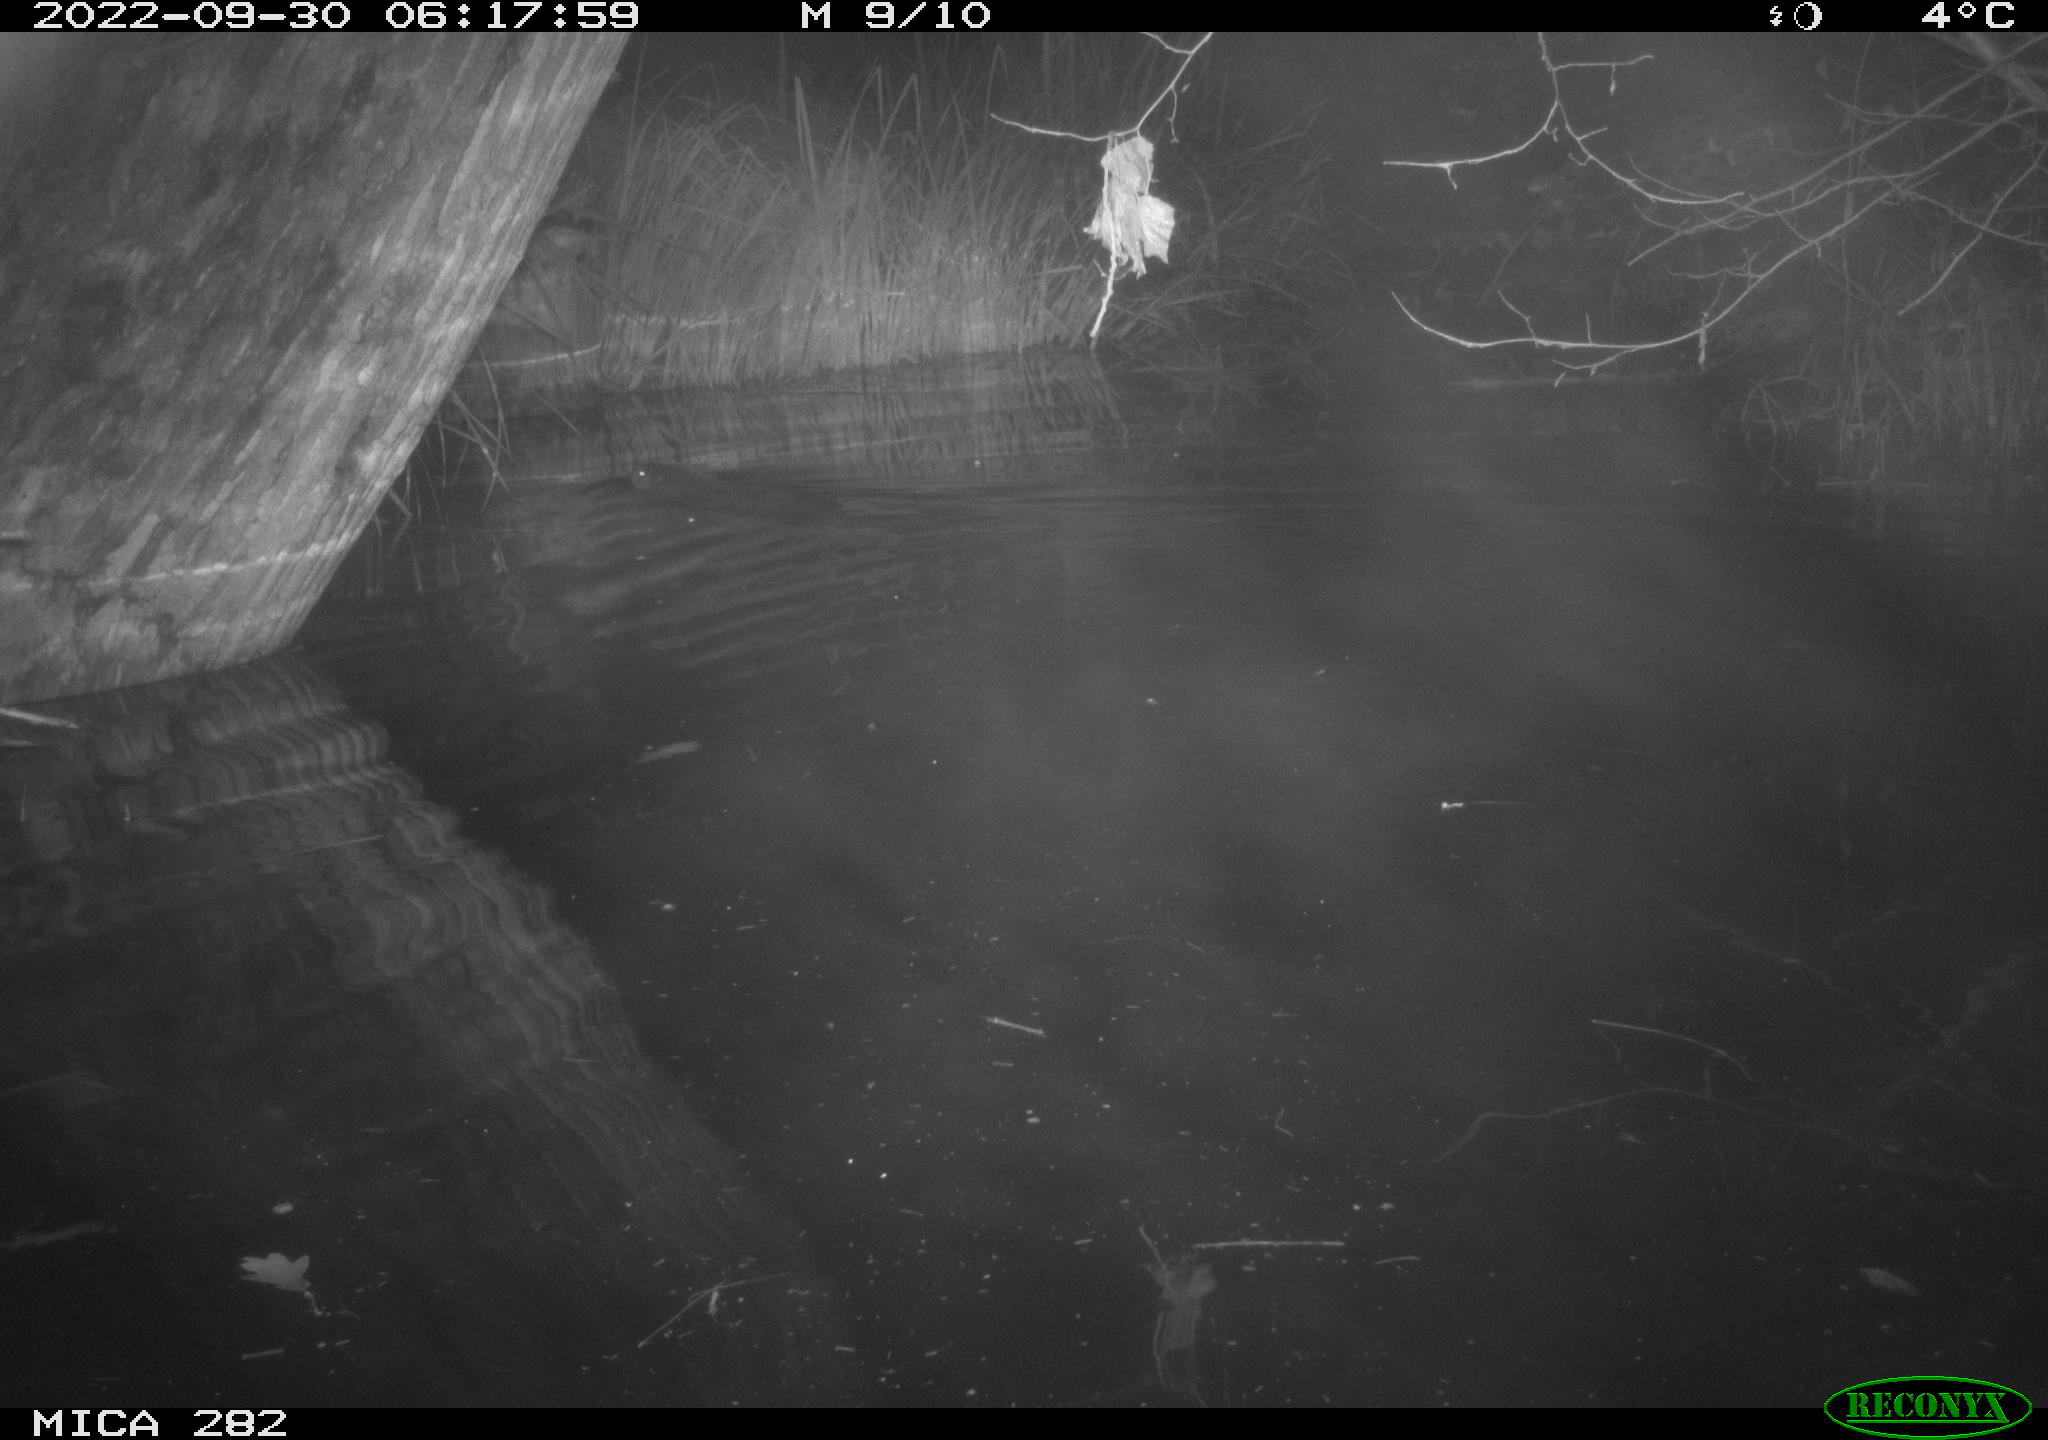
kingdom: Animalia
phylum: Chordata
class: Mammalia
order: Rodentia
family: Castoridae
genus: Castor
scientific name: Castor fiber
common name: Eurasian beaver
